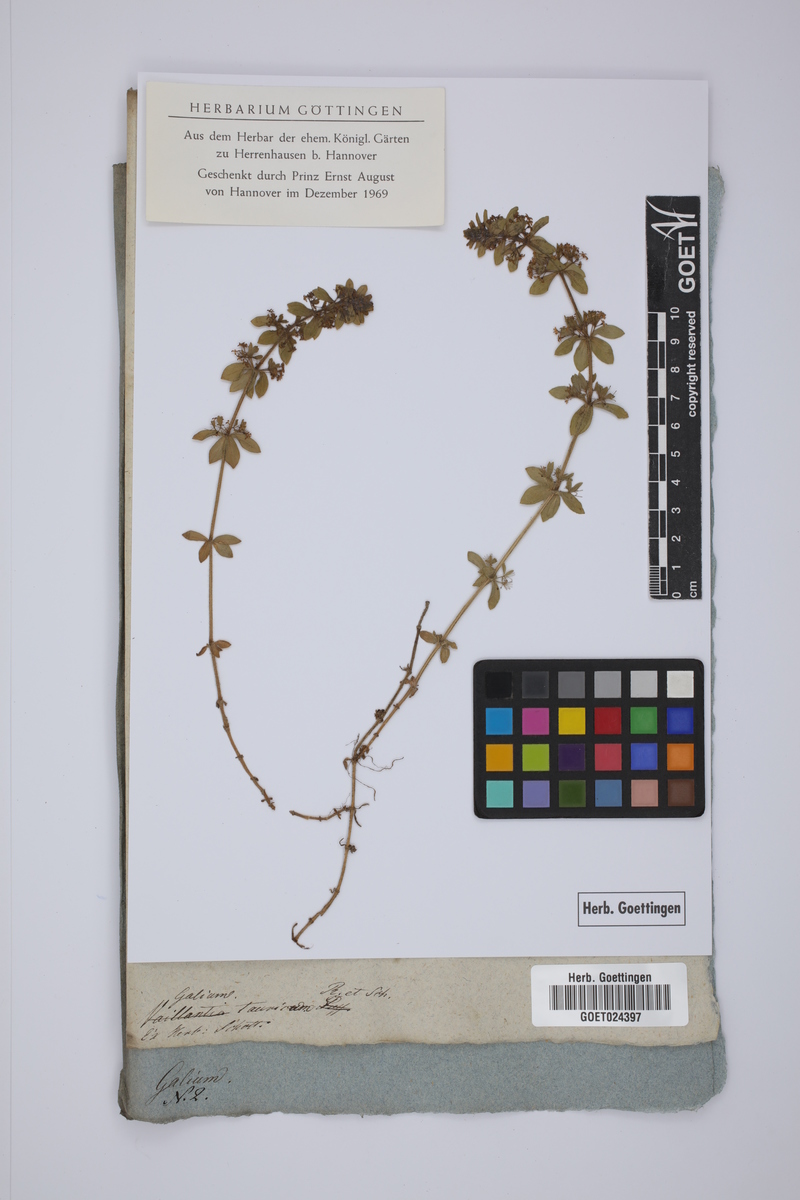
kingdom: Plantae
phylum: Tracheophyta
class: Magnoliopsida
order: Gentianales
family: Rubiaceae
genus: Cruciata
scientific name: Cruciata taurica
